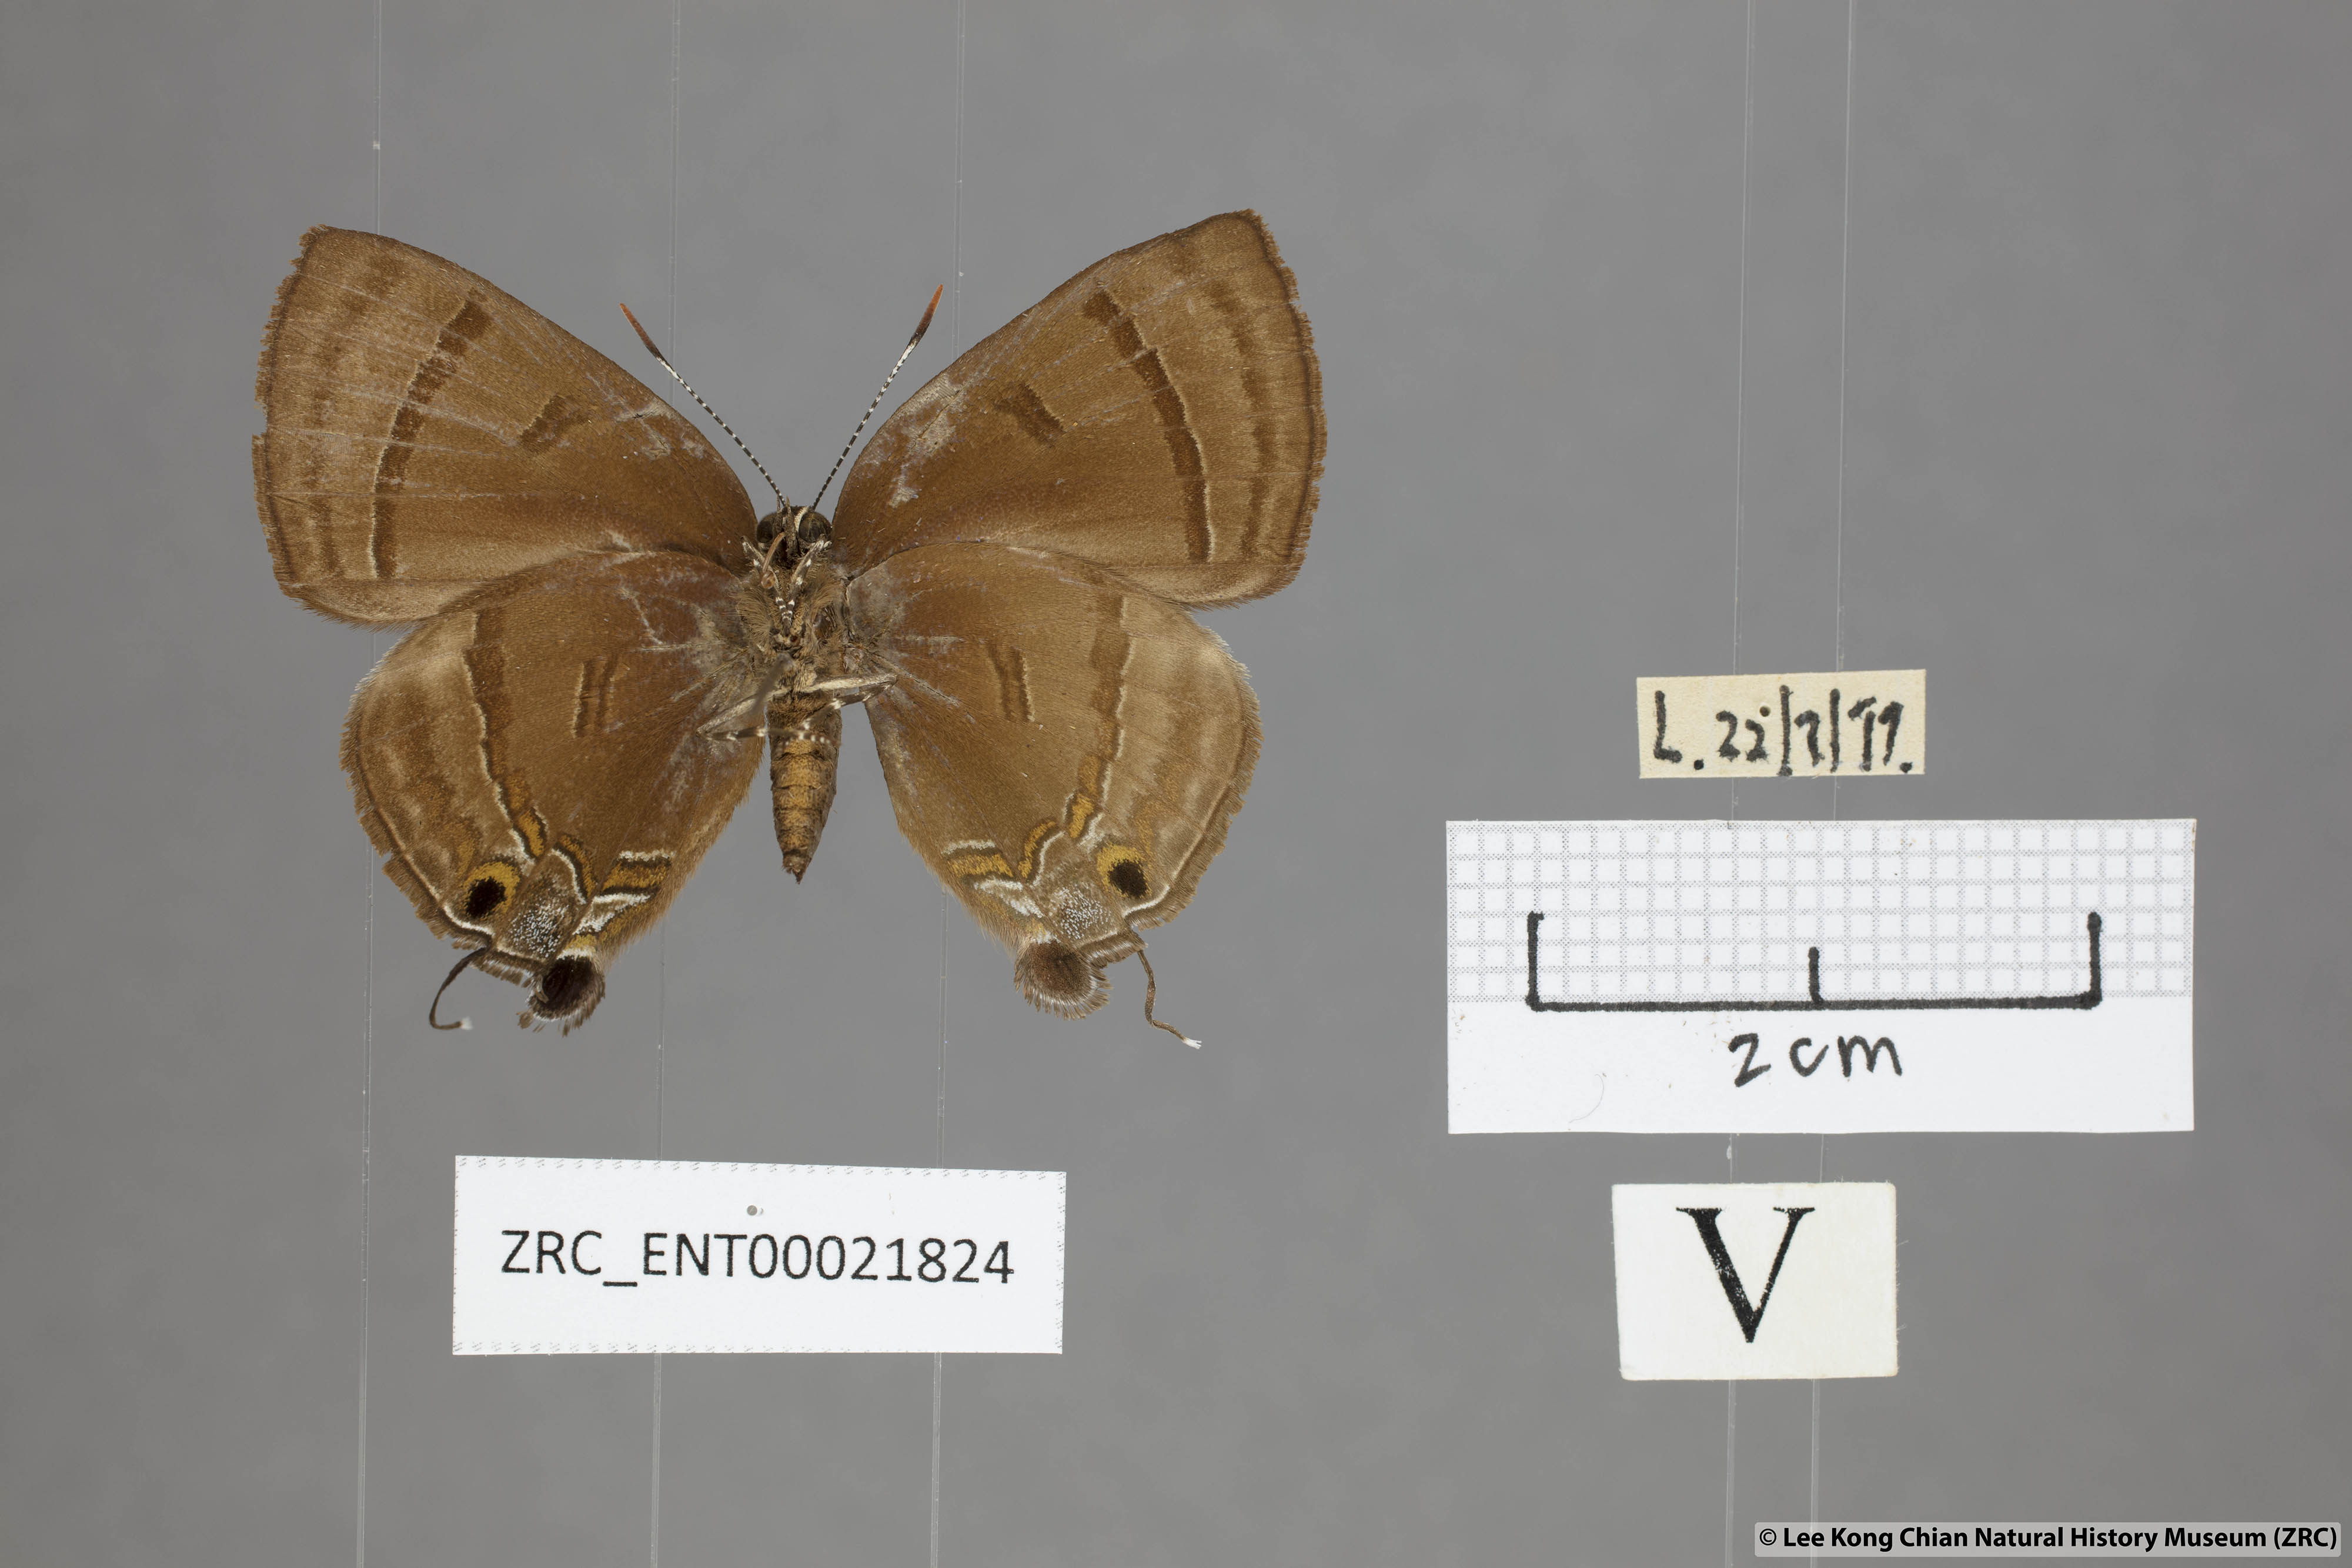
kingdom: Animalia
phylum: Arthropoda
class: Insecta
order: Lepidoptera
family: Lycaenidae
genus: Rapala
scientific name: Rapala rhoecus
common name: Brilliant flash
